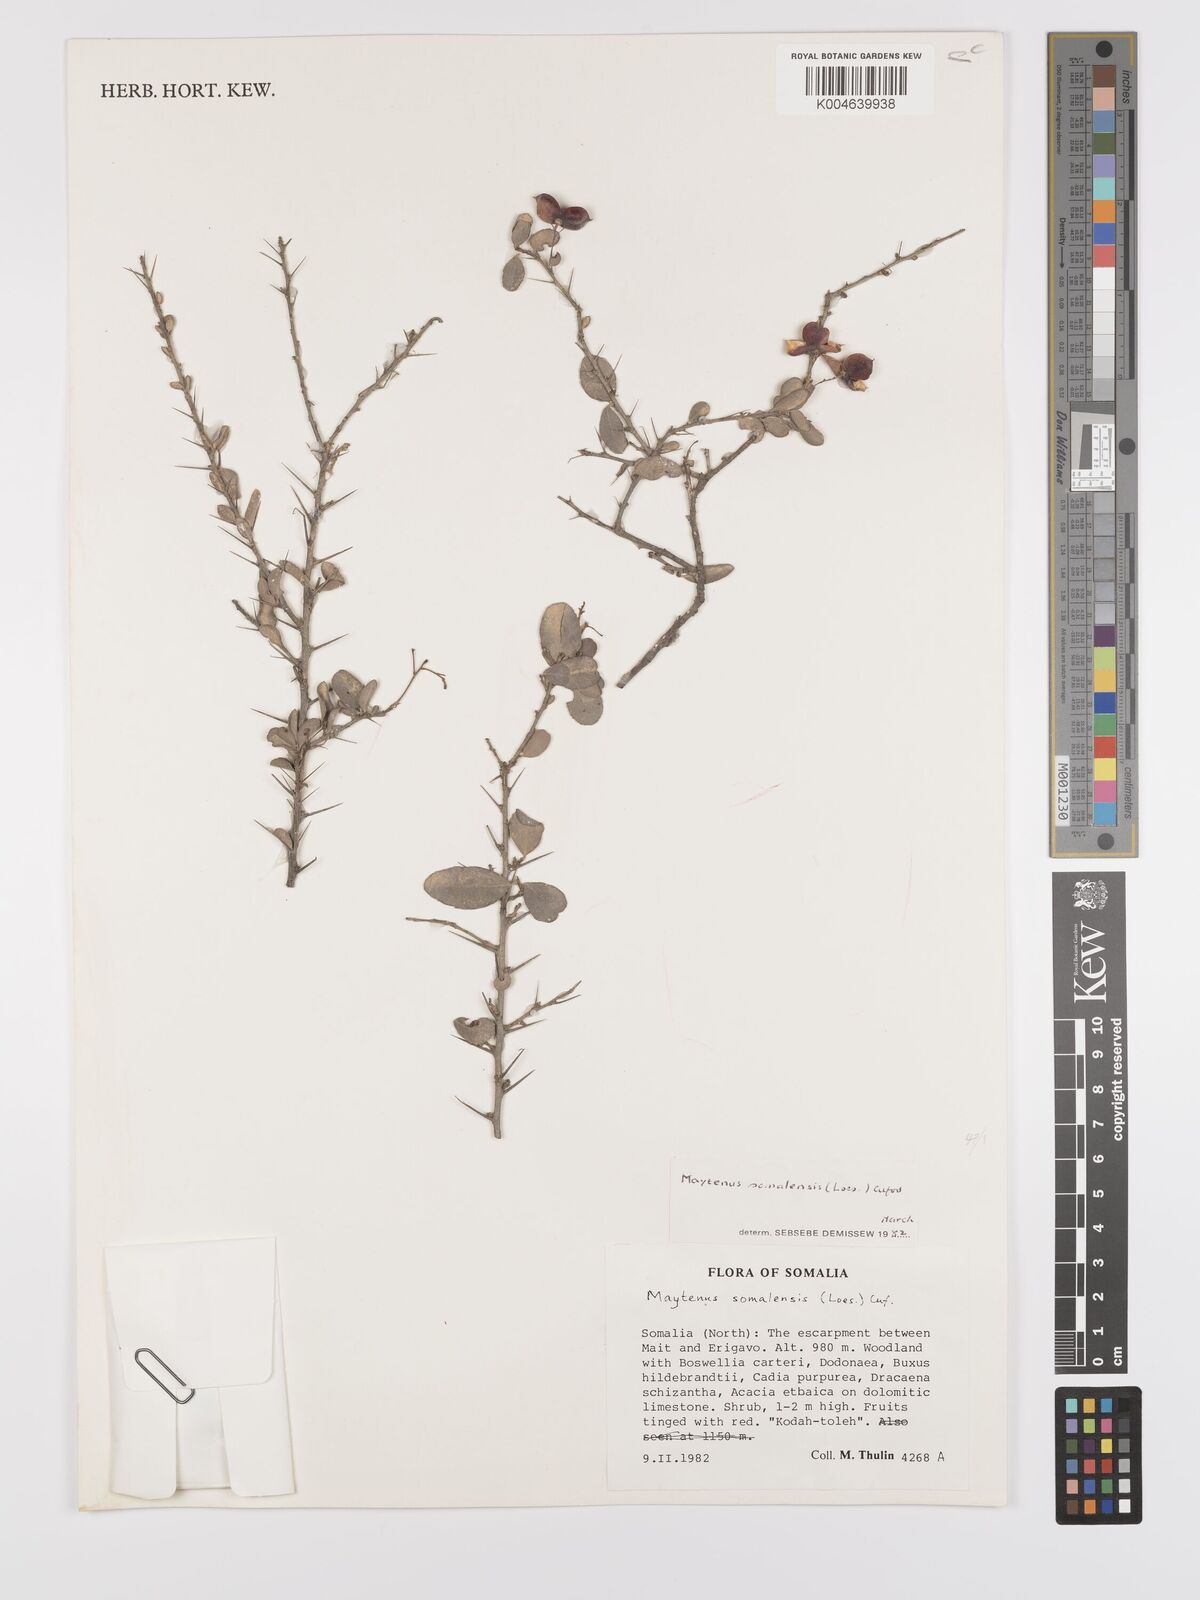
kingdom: Plantae
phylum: Tracheophyta
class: Magnoliopsida
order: Celastrales
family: Celastraceae
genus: Gymnosporia
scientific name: Gymnosporia somalensis
